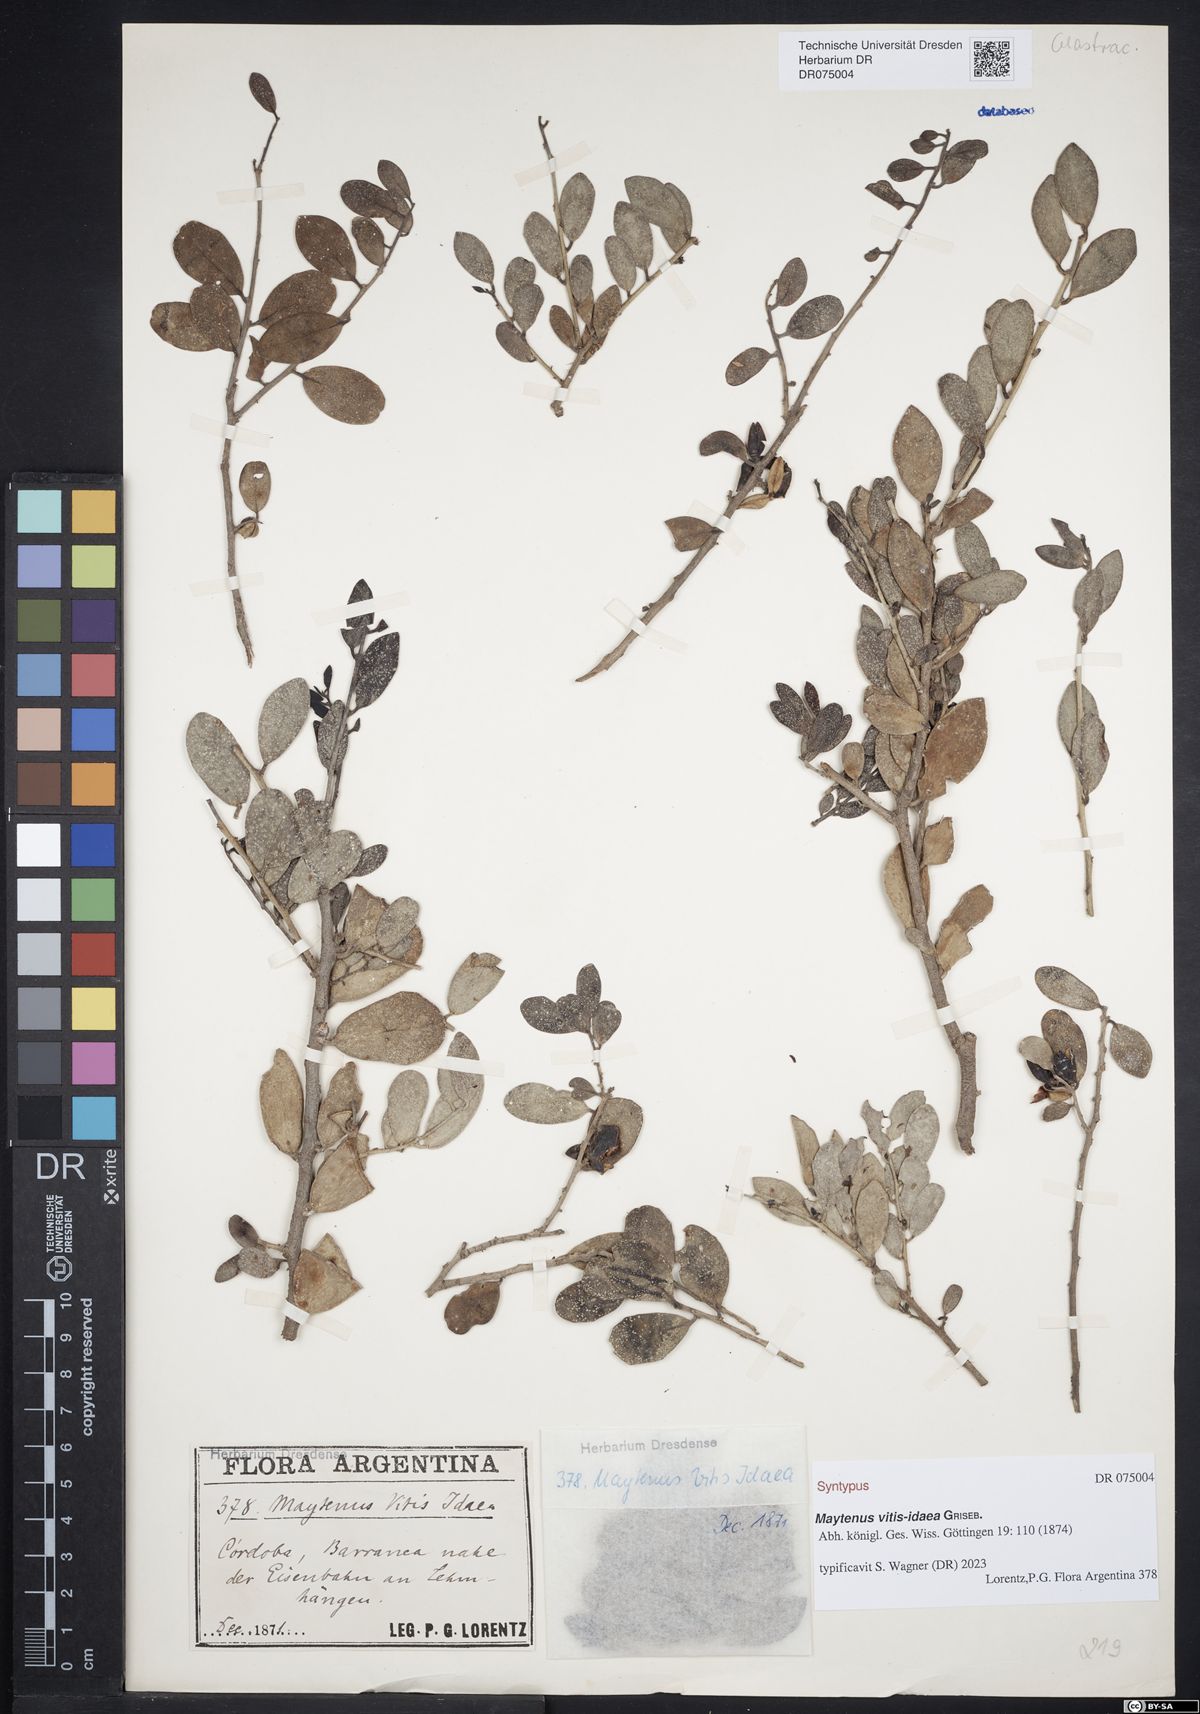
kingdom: Plantae
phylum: Tracheophyta
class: Magnoliopsida
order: Celastrales
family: Celastraceae
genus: Tricerma
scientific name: Tricerma vitis-idaeum
